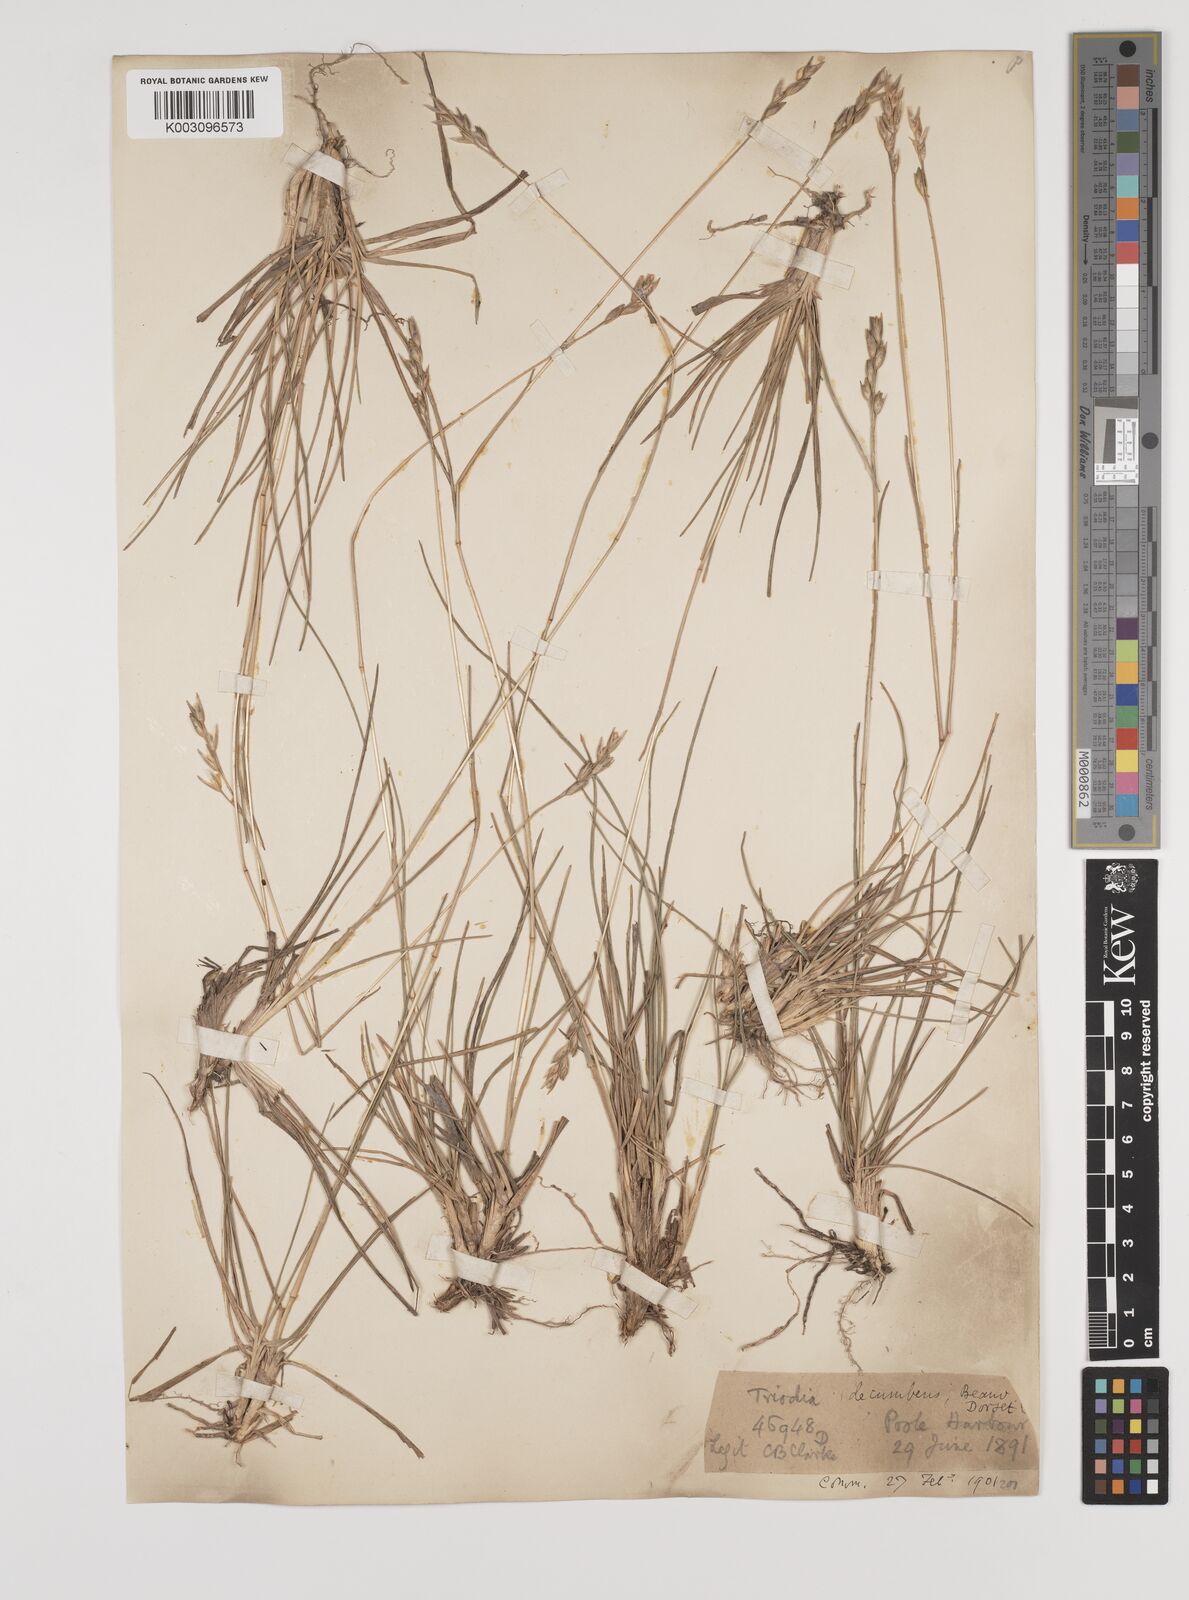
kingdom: Plantae
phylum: Tracheophyta
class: Liliopsida
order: Poales
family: Poaceae
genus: Danthonia
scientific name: Danthonia decumbens
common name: Common heathgrass
